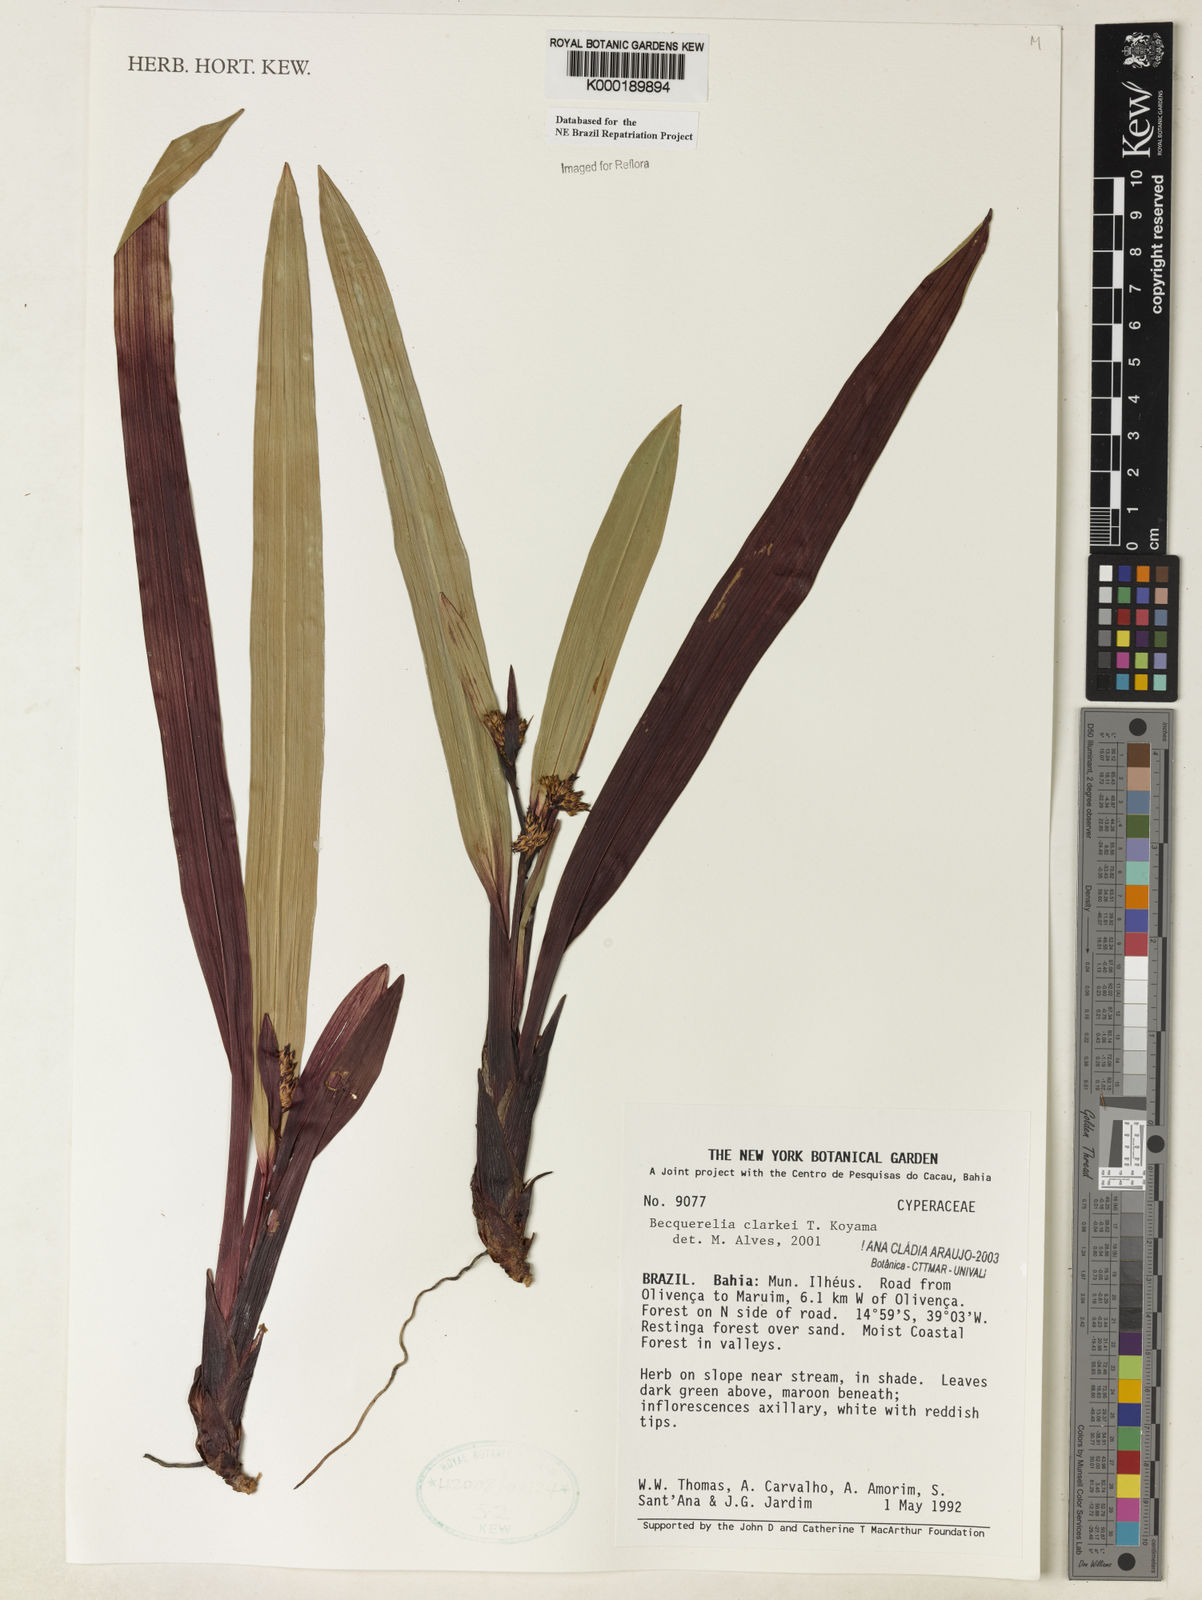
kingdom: Plantae
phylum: Tracheophyta
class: Liliopsida
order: Poales
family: Cyperaceae
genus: Becquerelia
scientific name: Becquerelia clarkei
